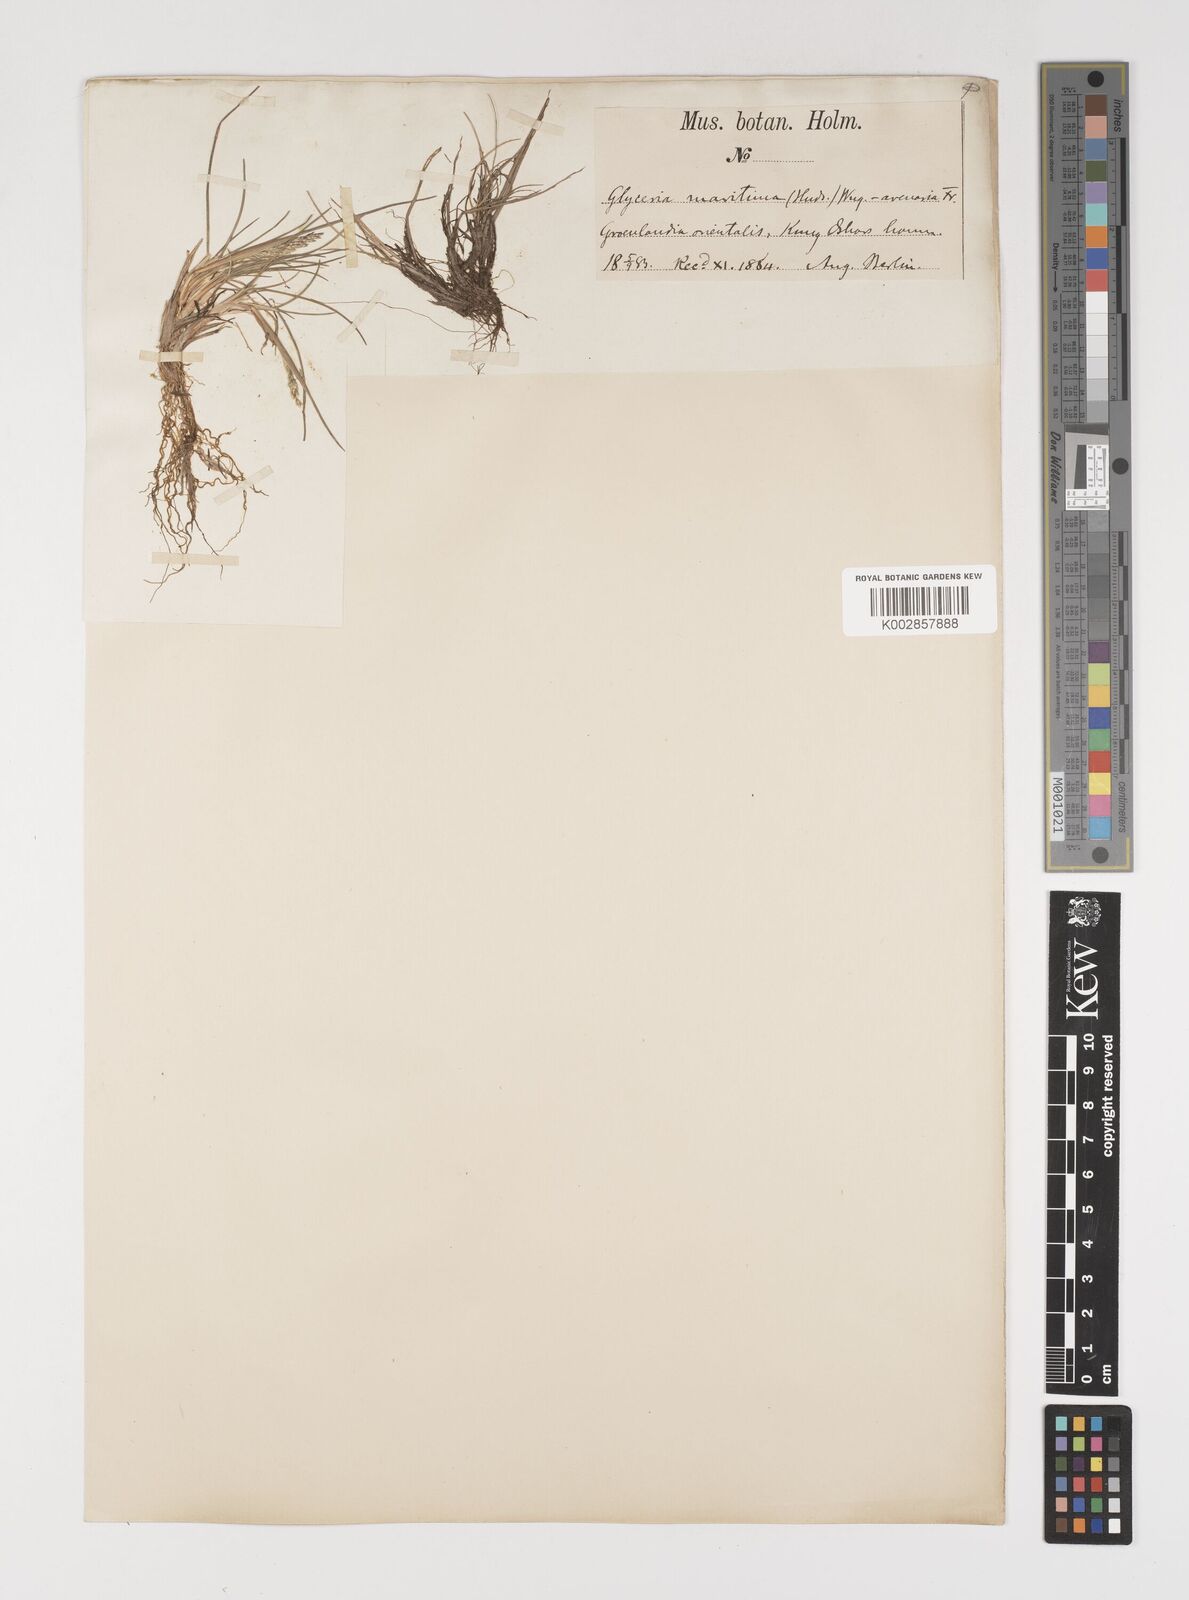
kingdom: Plantae
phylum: Tracheophyta
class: Liliopsida
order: Poales
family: Poaceae
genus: Puccinellia
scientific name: Puccinellia
